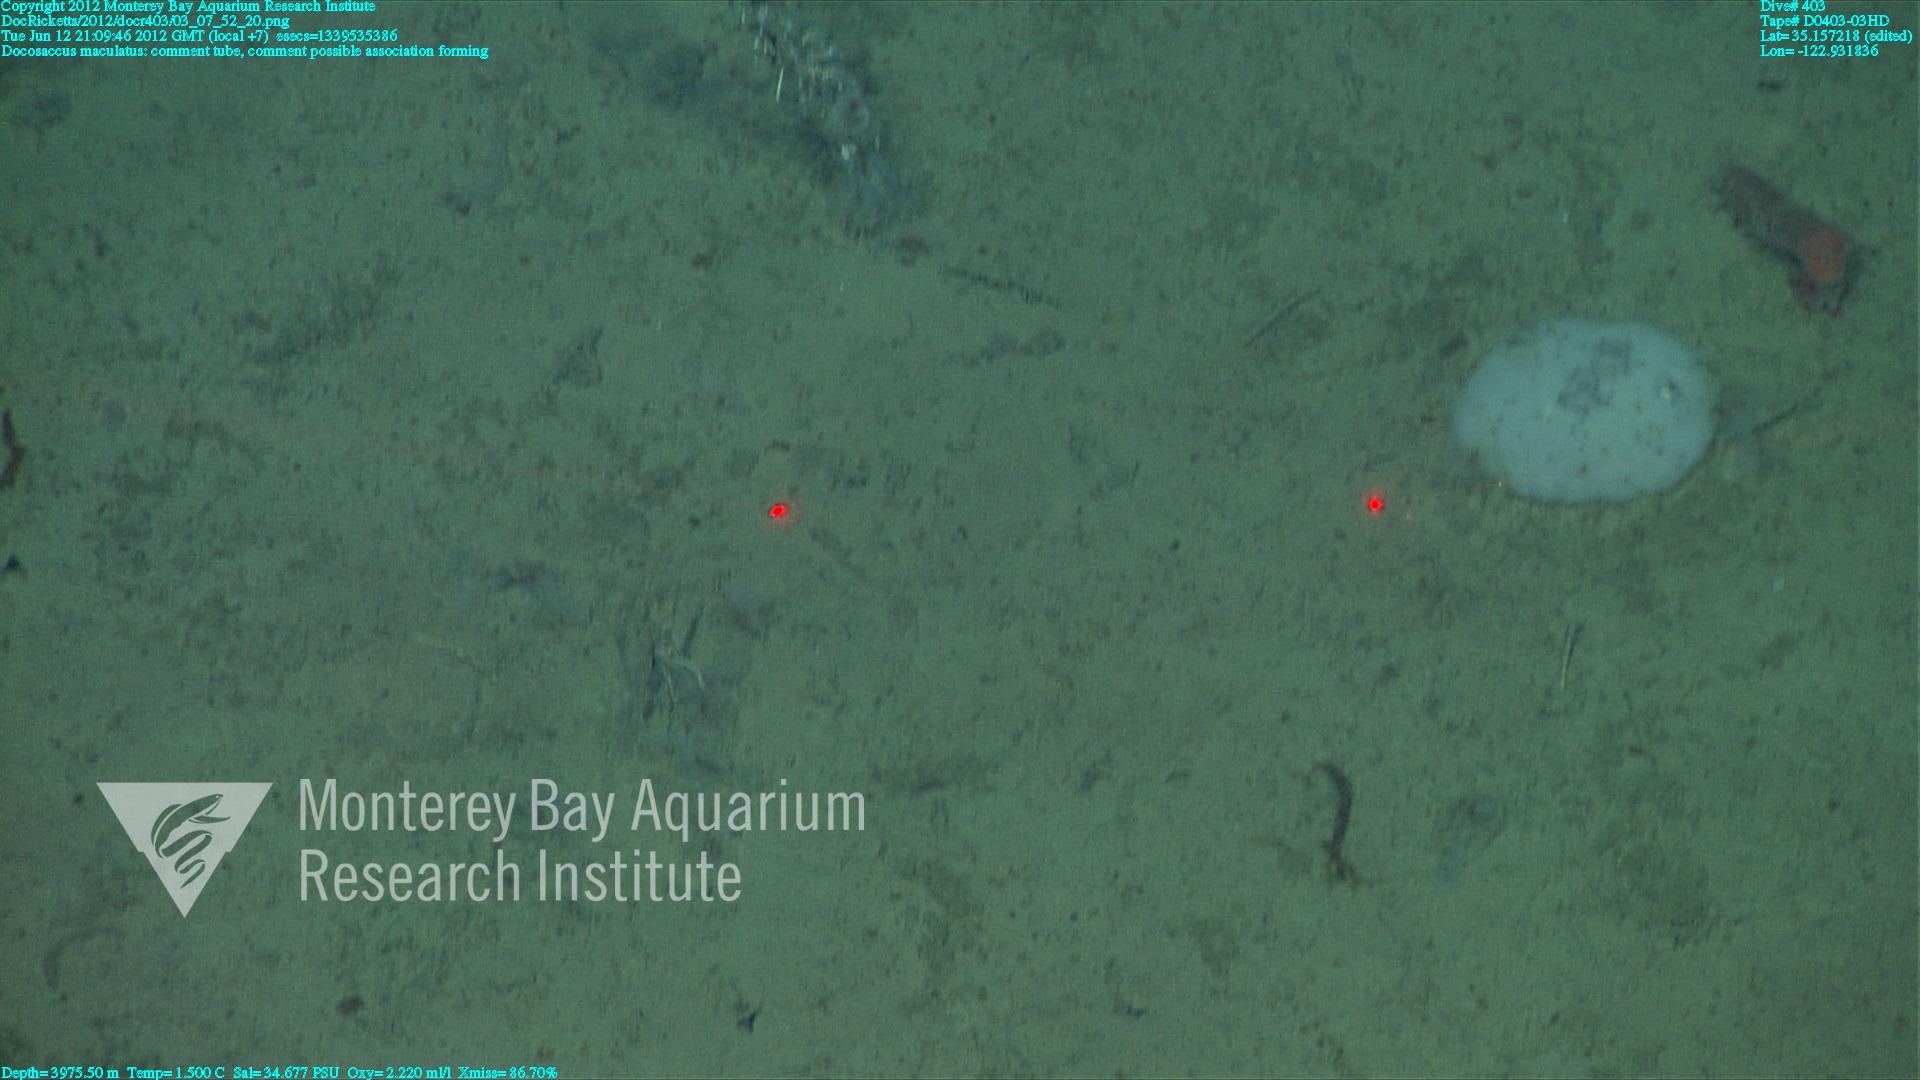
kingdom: Animalia
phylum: Porifera
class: Hexactinellida
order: Lyssacinosida
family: Euplectellidae
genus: Docosaccus
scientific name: Docosaccus maculatus
